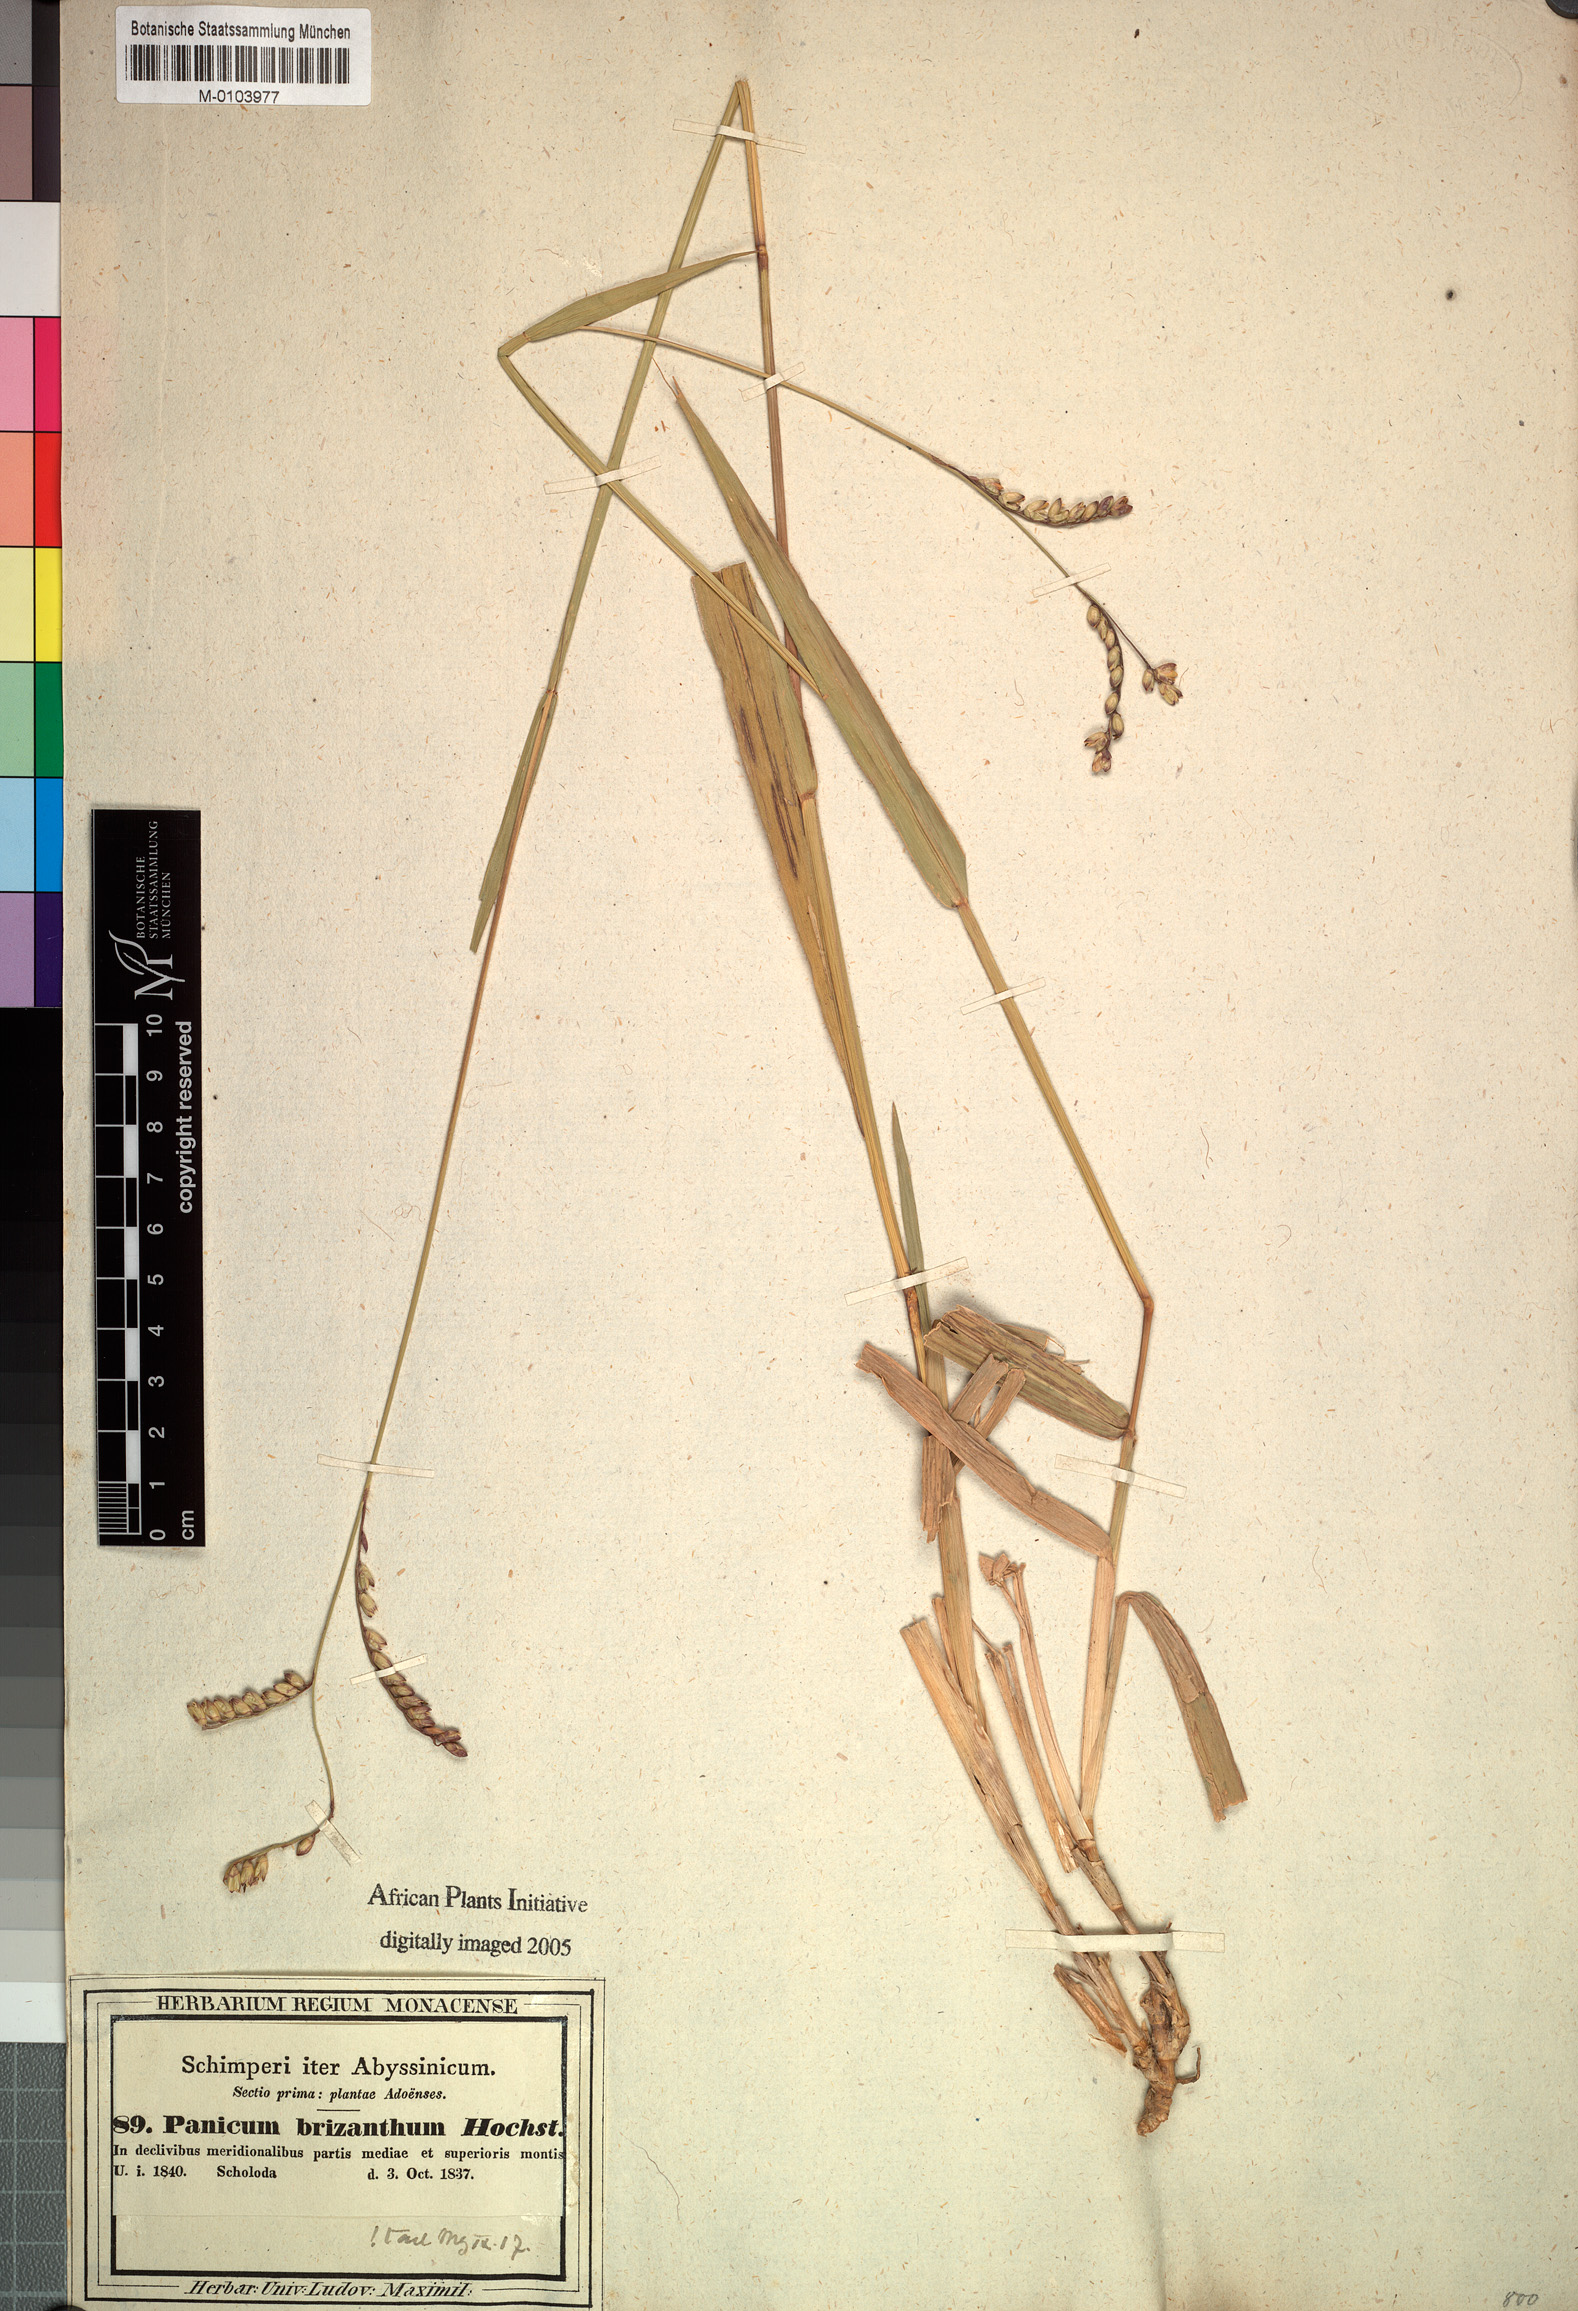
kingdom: Plantae
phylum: Tracheophyta
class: Liliopsida
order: Poales
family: Poaceae
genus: Urochloa
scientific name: Urochloa brizantha
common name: Palisade signalgrass
